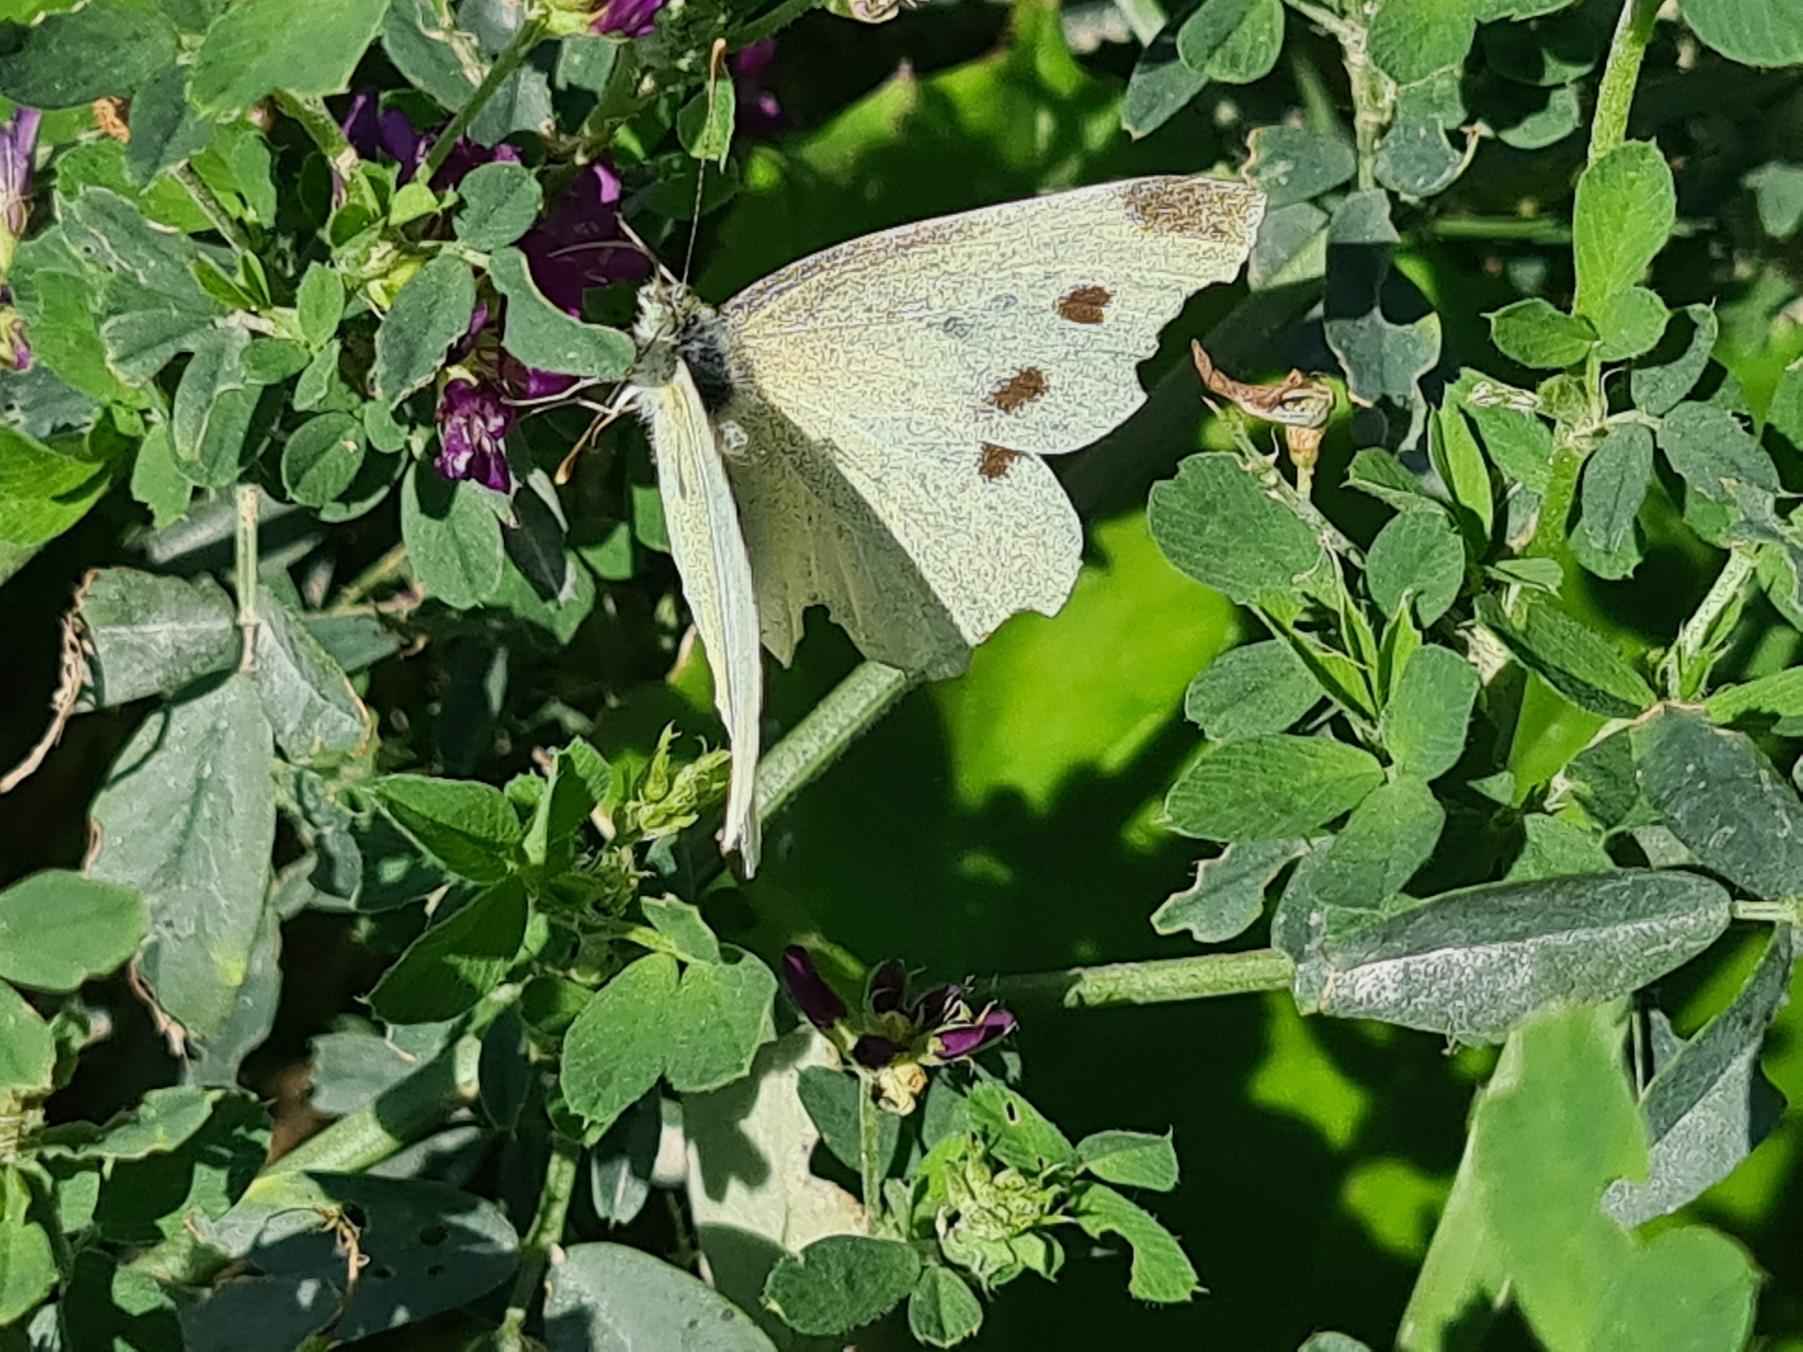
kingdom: Animalia
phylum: Arthropoda
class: Insecta
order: Lepidoptera
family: Pieridae
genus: Pieris
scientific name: Pieris rapae
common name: Lille kålsommerfugl
